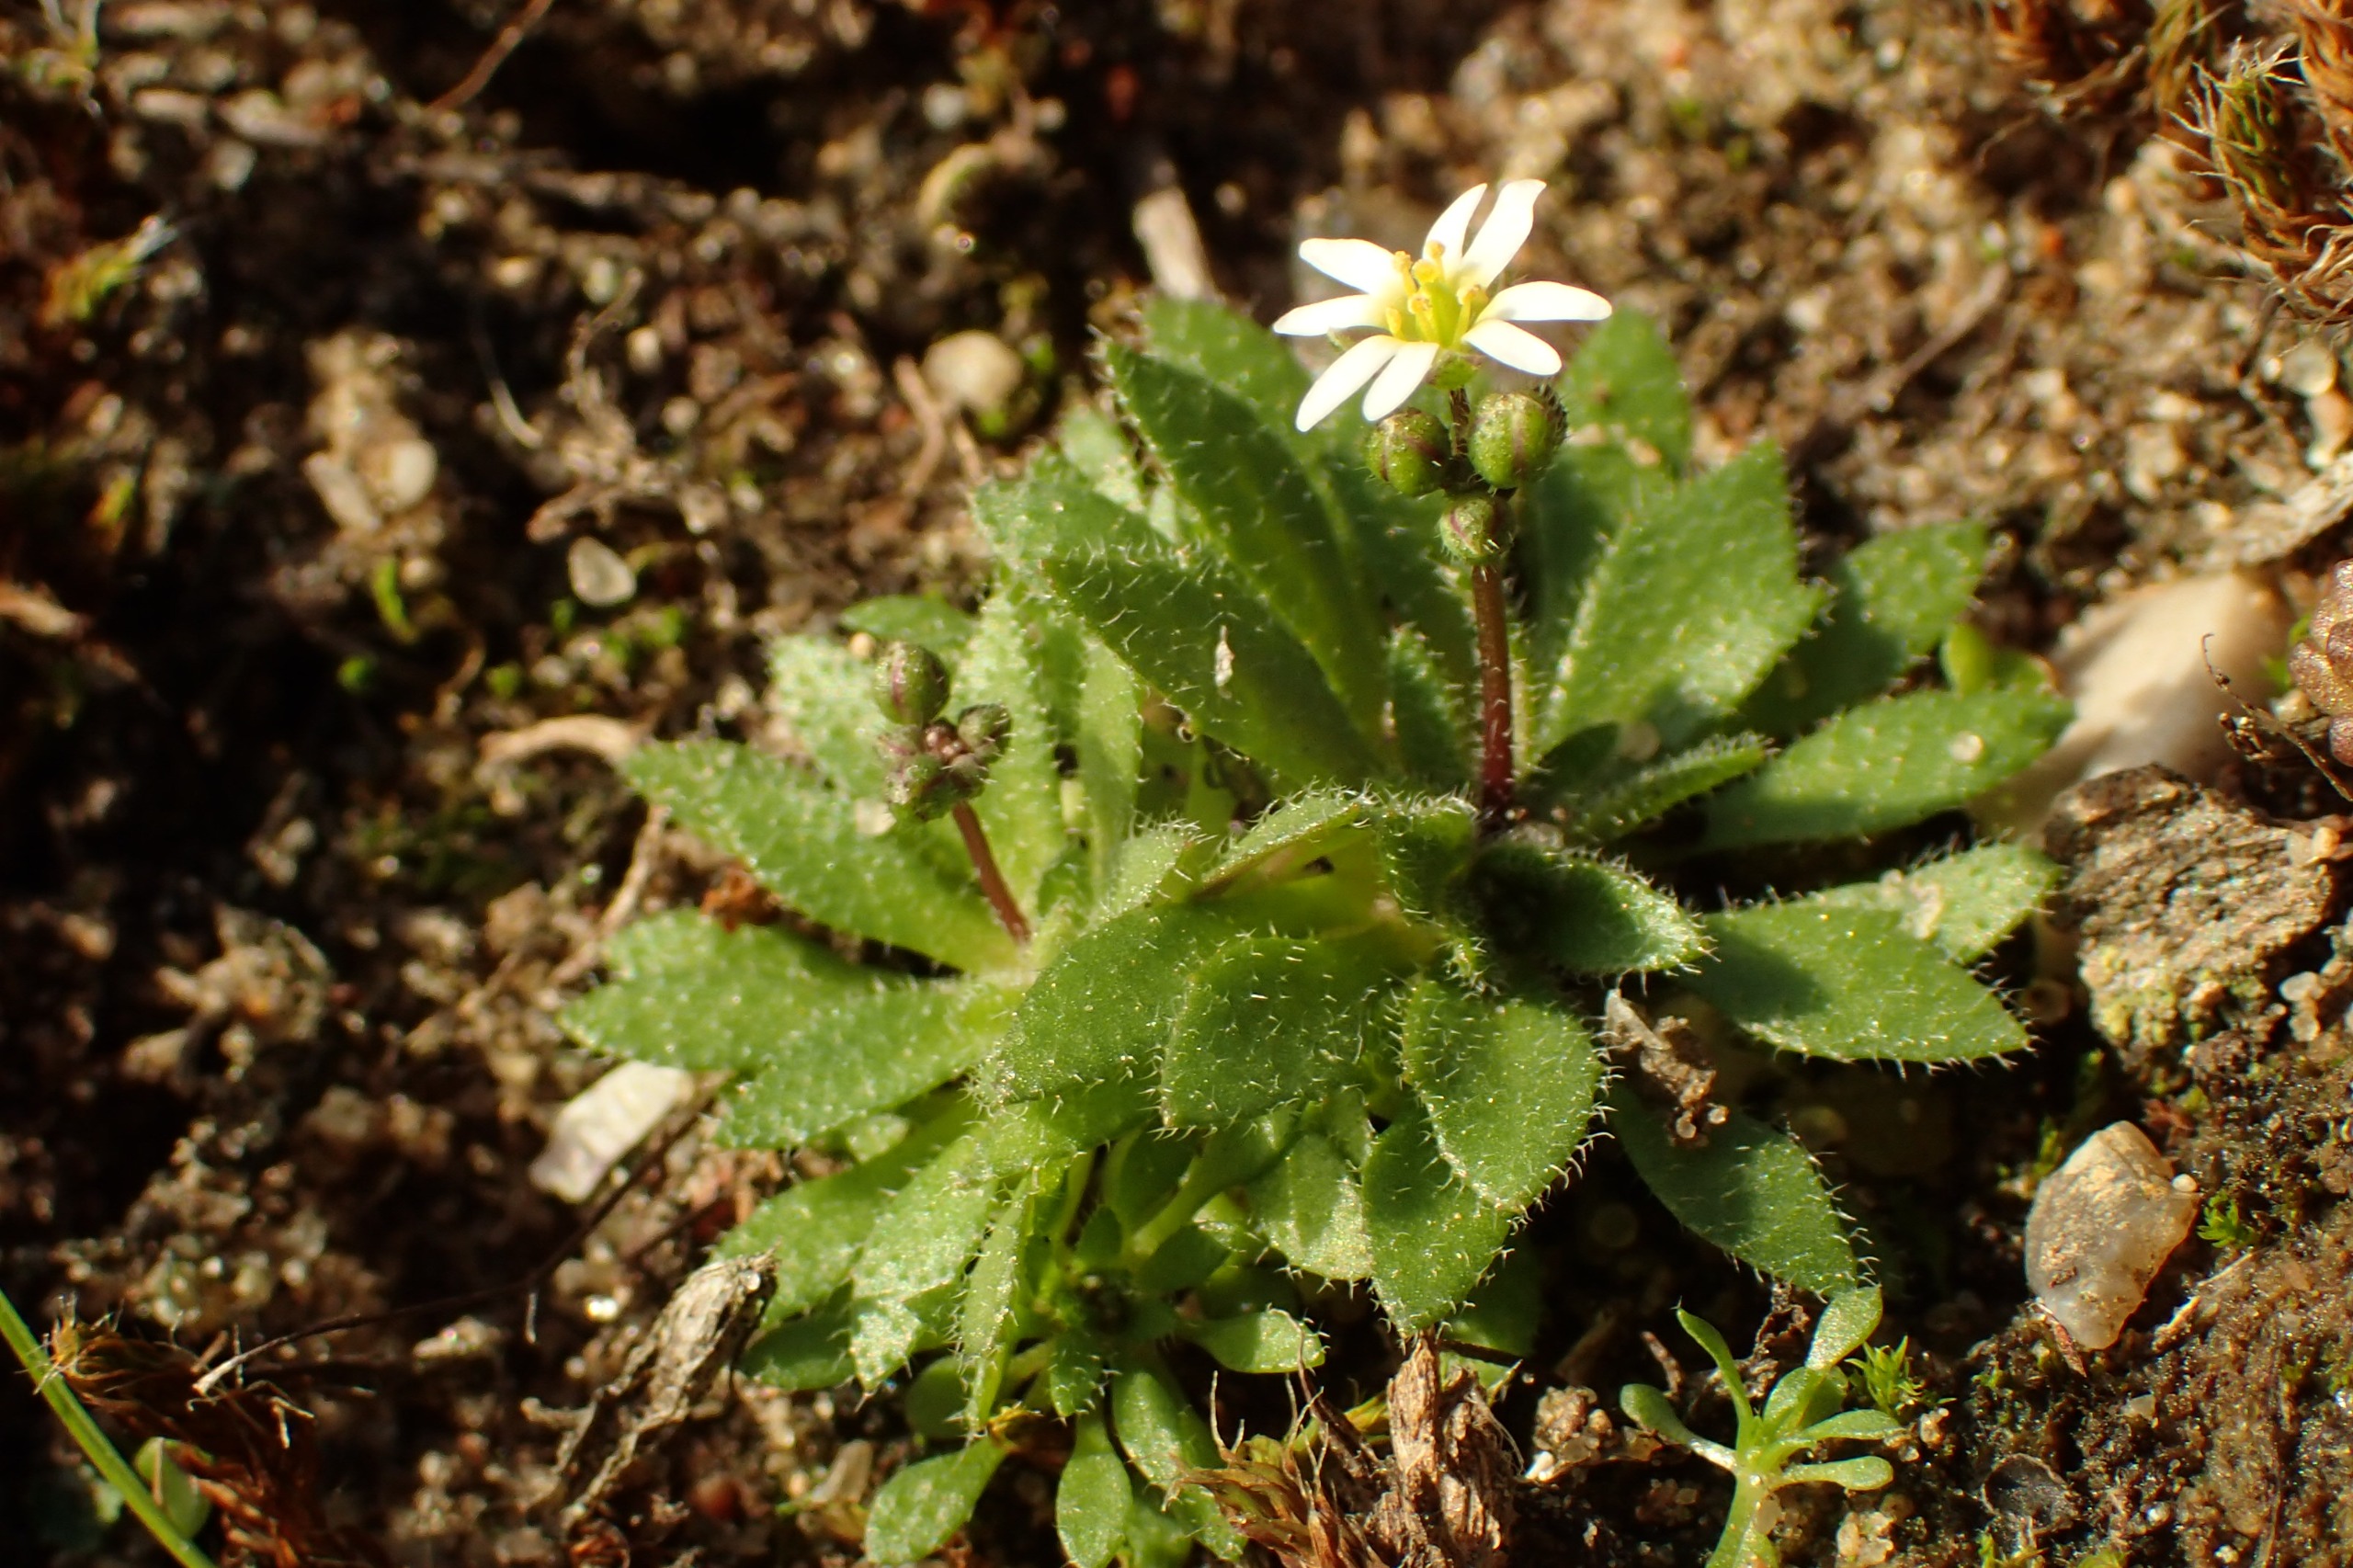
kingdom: Plantae
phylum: Tracheophyta
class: Magnoliopsida
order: Brassicales
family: Brassicaceae
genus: Draba
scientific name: Draba verna
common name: Vår-gæslingeblomst
